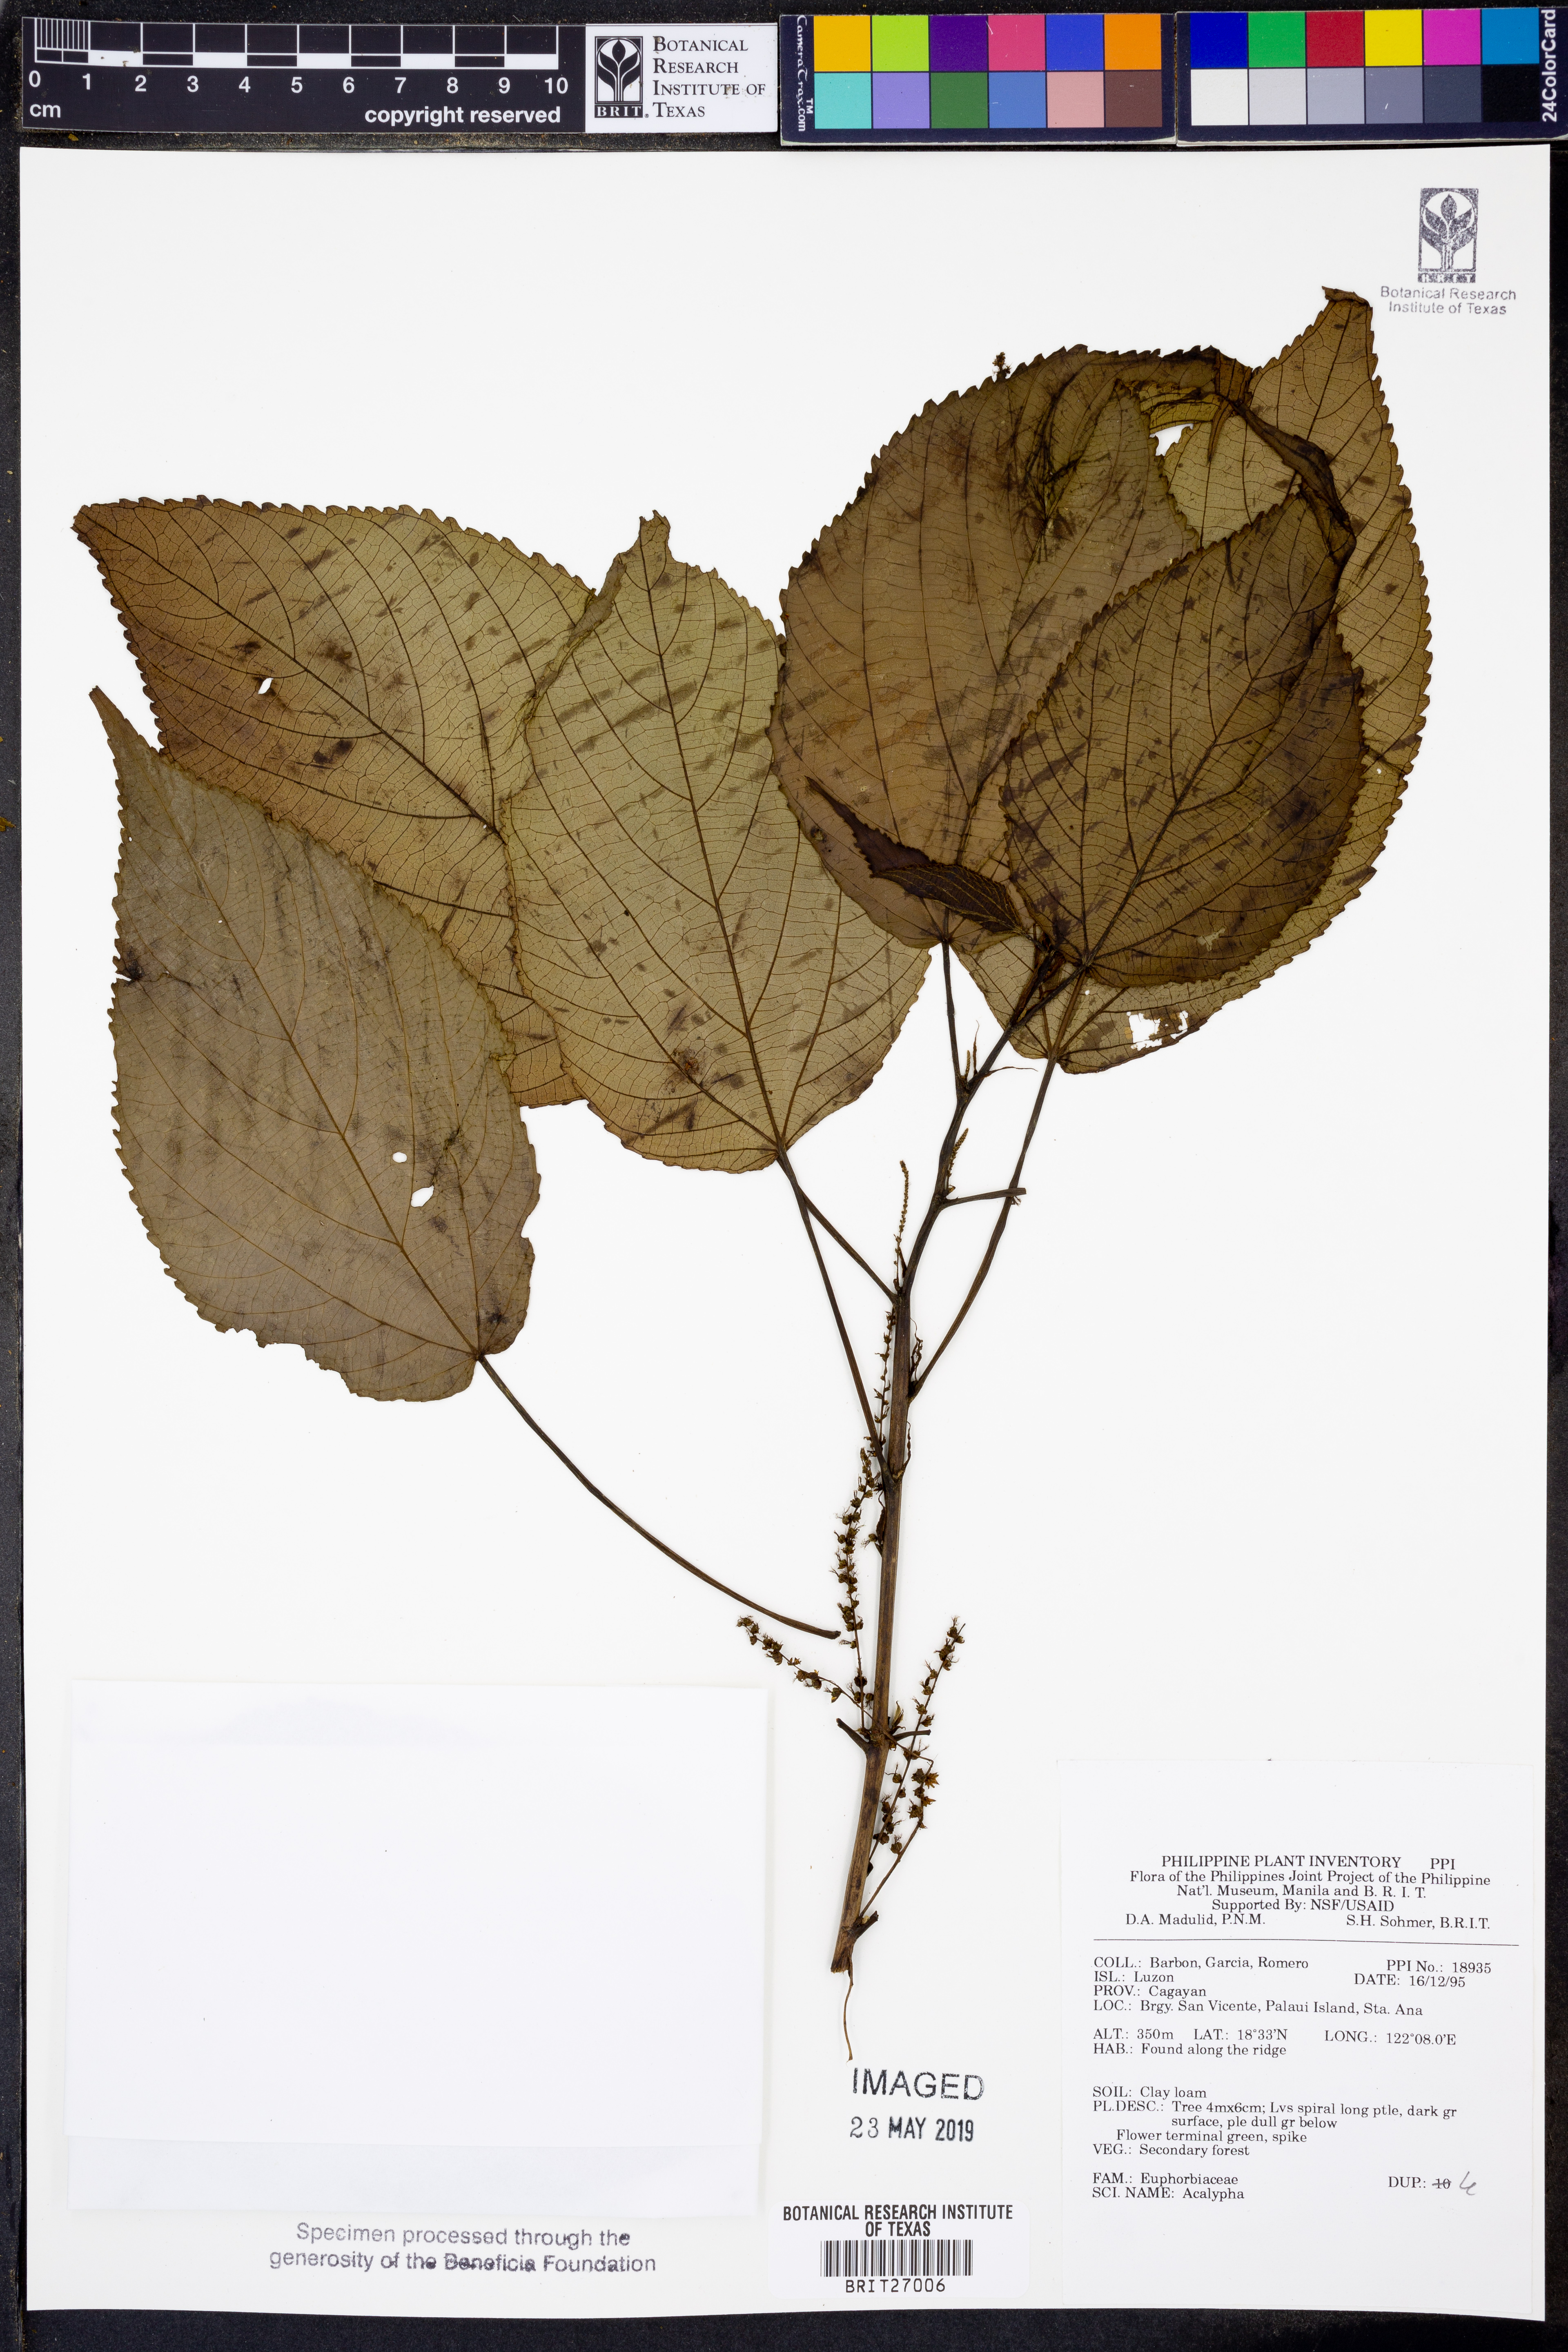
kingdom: Plantae
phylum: Tracheophyta
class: Magnoliopsida
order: Malpighiales
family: Euphorbiaceae
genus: Acalypha
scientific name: Acalypha
